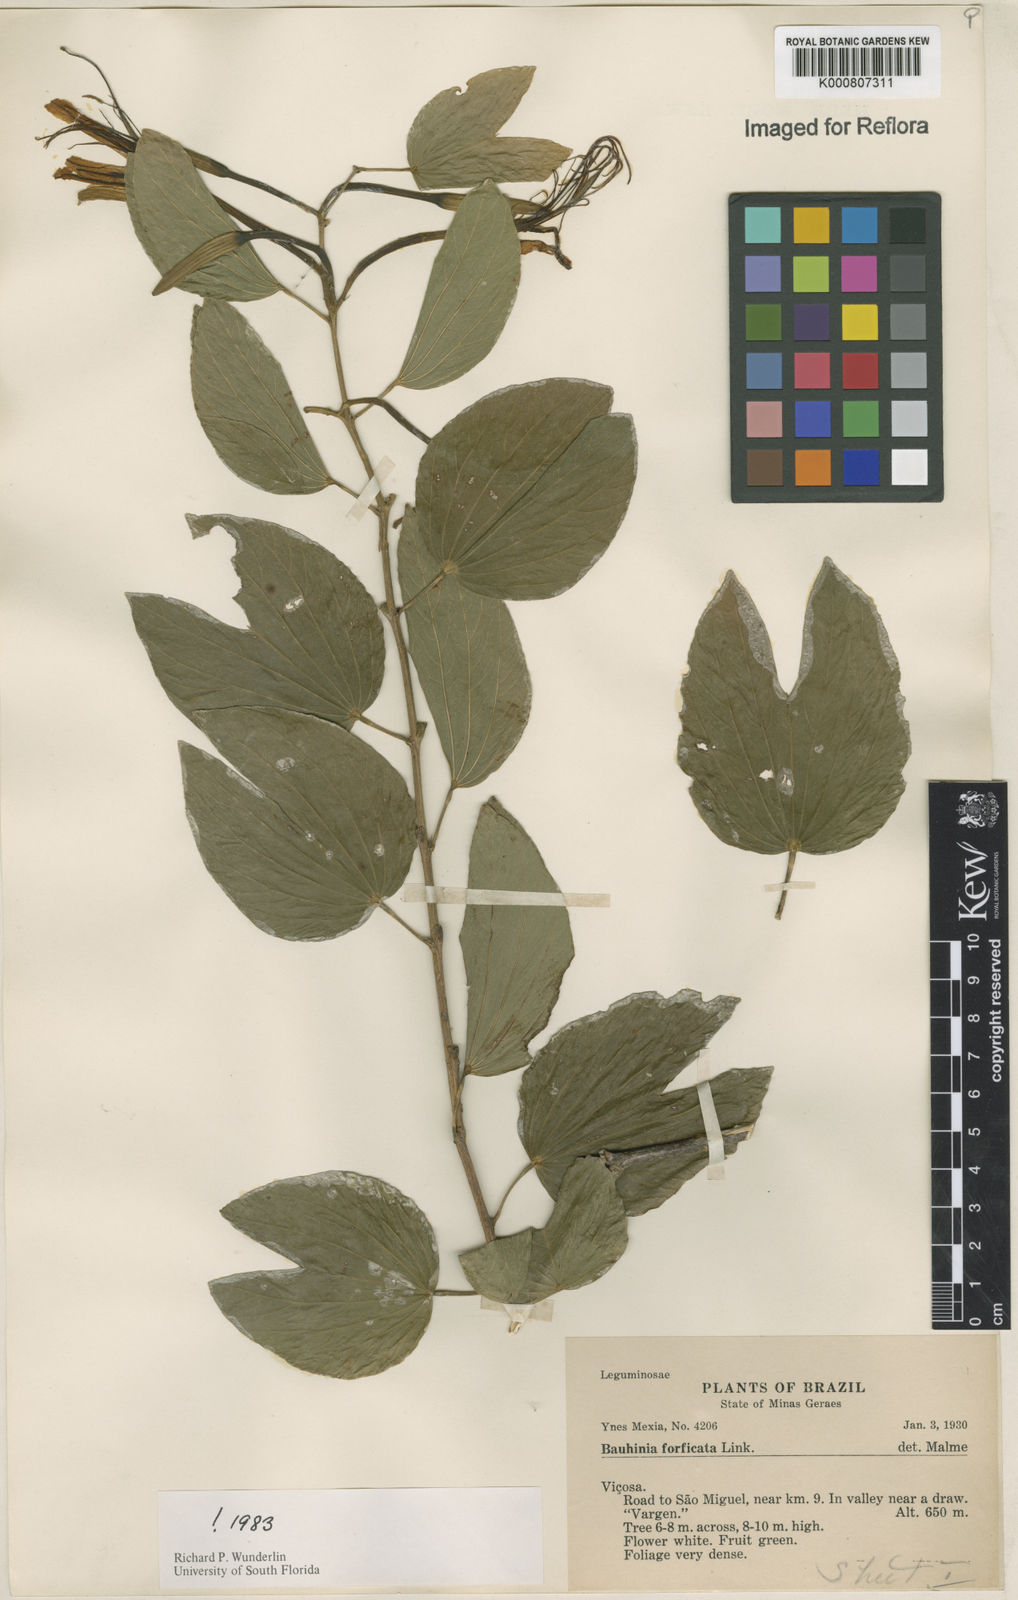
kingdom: Plantae
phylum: Tracheophyta
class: Magnoliopsida
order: Fabales
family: Fabaceae
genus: Bauhinia
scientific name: Bauhinia forficata
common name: Orchid tree
